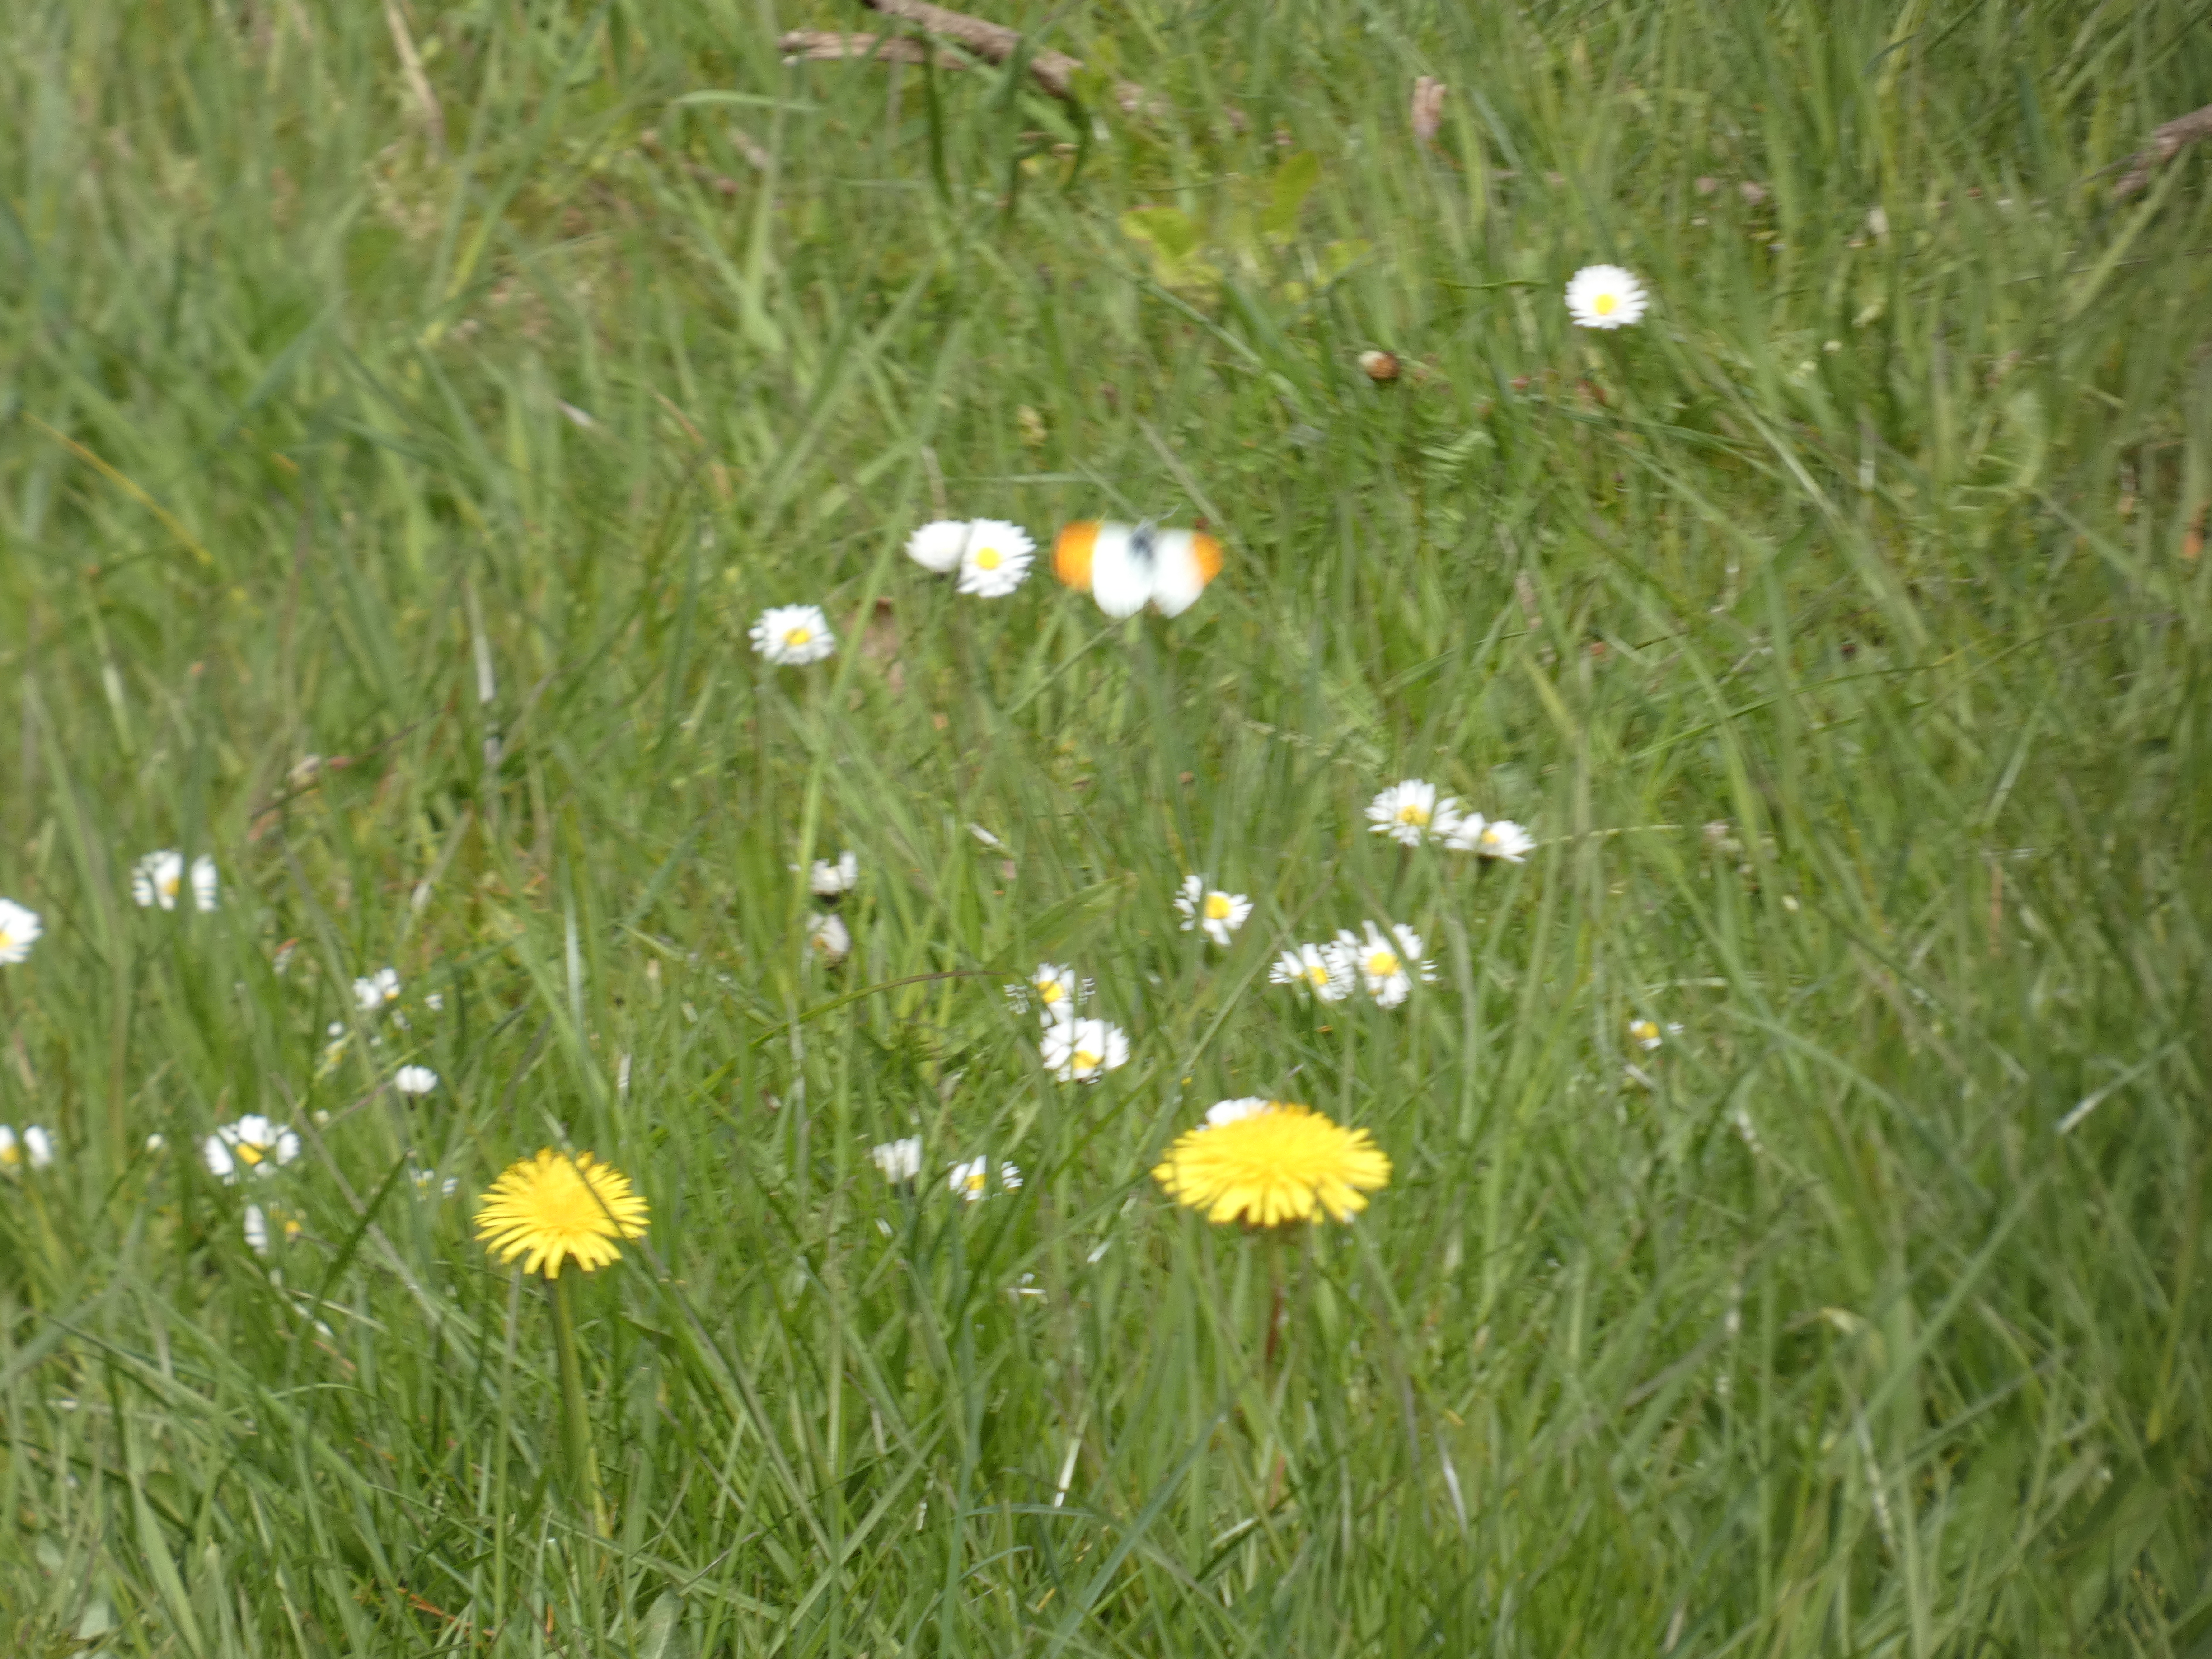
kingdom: Animalia
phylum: Arthropoda
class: Insecta
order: Lepidoptera
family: Pieridae
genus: Anthocharis
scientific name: Anthocharis cardamines
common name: Aurora
